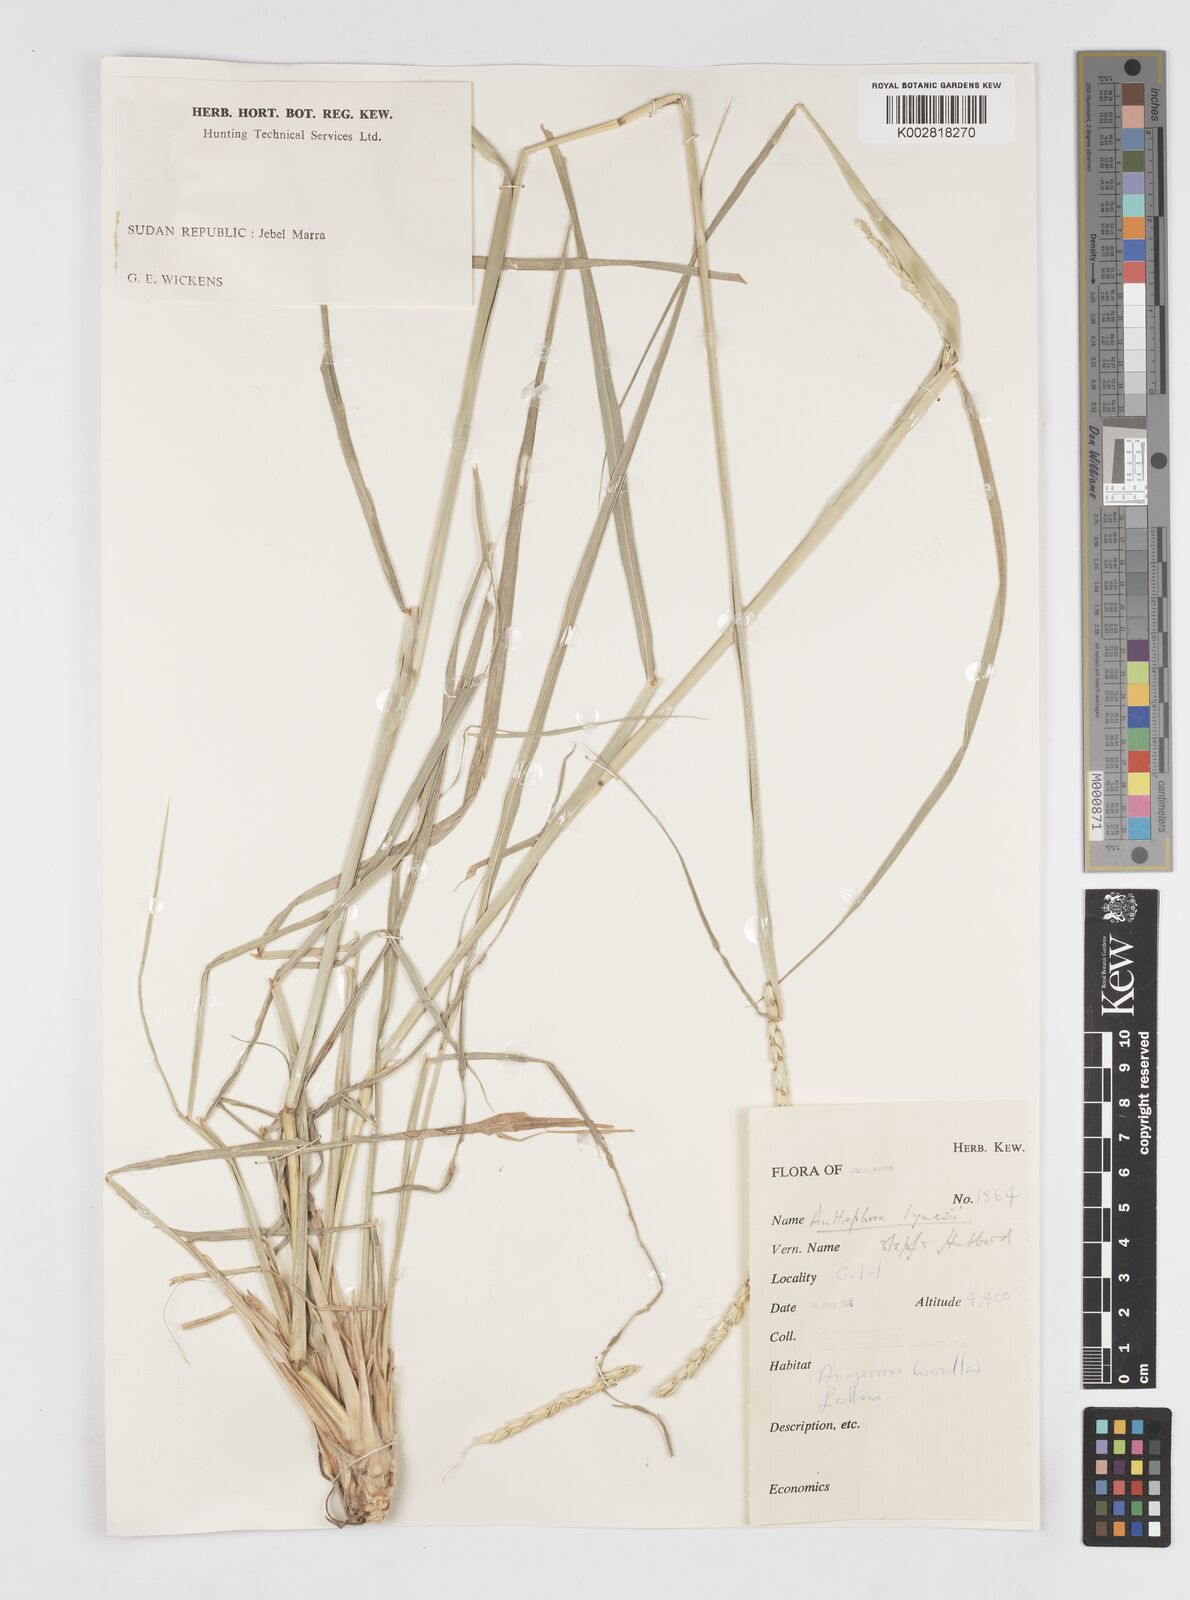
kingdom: Plantae
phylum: Tracheophyta
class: Liliopsida
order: Poales
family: Poaceae
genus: Anthephora
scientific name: Anthephora nigritana
